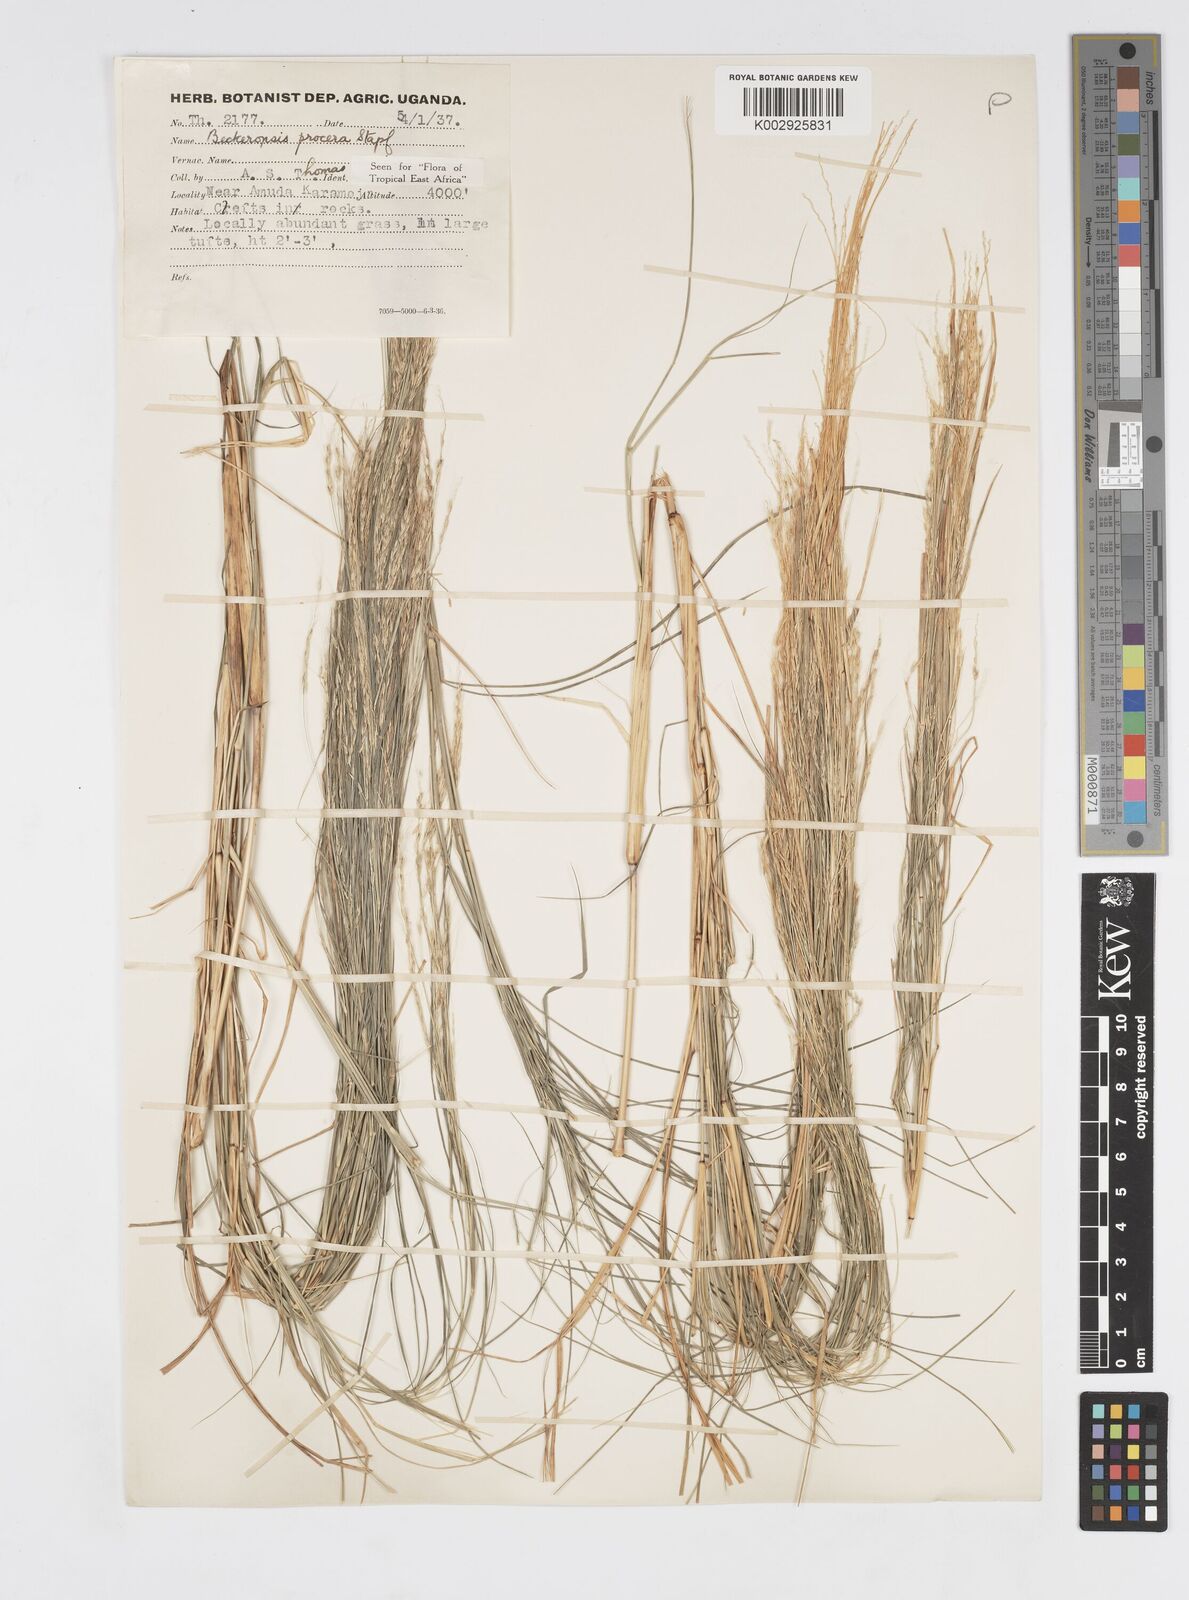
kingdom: Plantae
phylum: Tracheophyta
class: Liliopsida
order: Poales
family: Poaceae
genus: Cenchrus
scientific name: Cenchrus procerus
